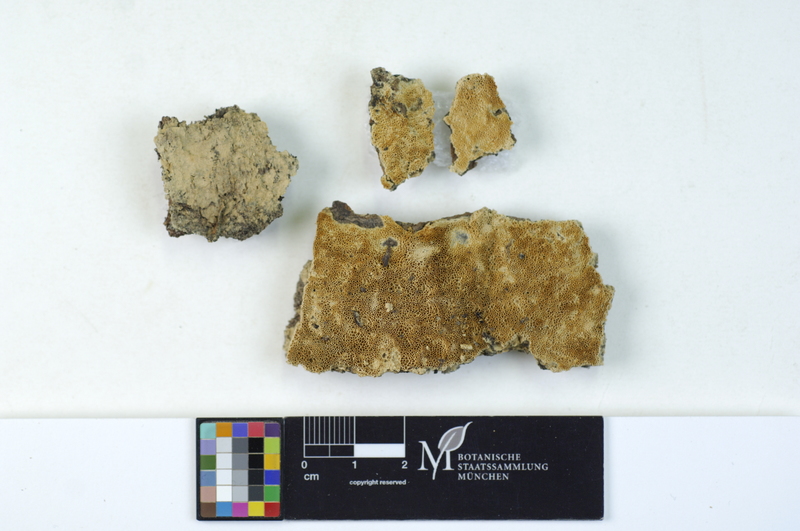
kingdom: Plantae
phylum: Tracheophyta
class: Magnoliopsida
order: Malpighiales
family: Salicaceae
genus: Populus
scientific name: Populus tremula
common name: European aspen
